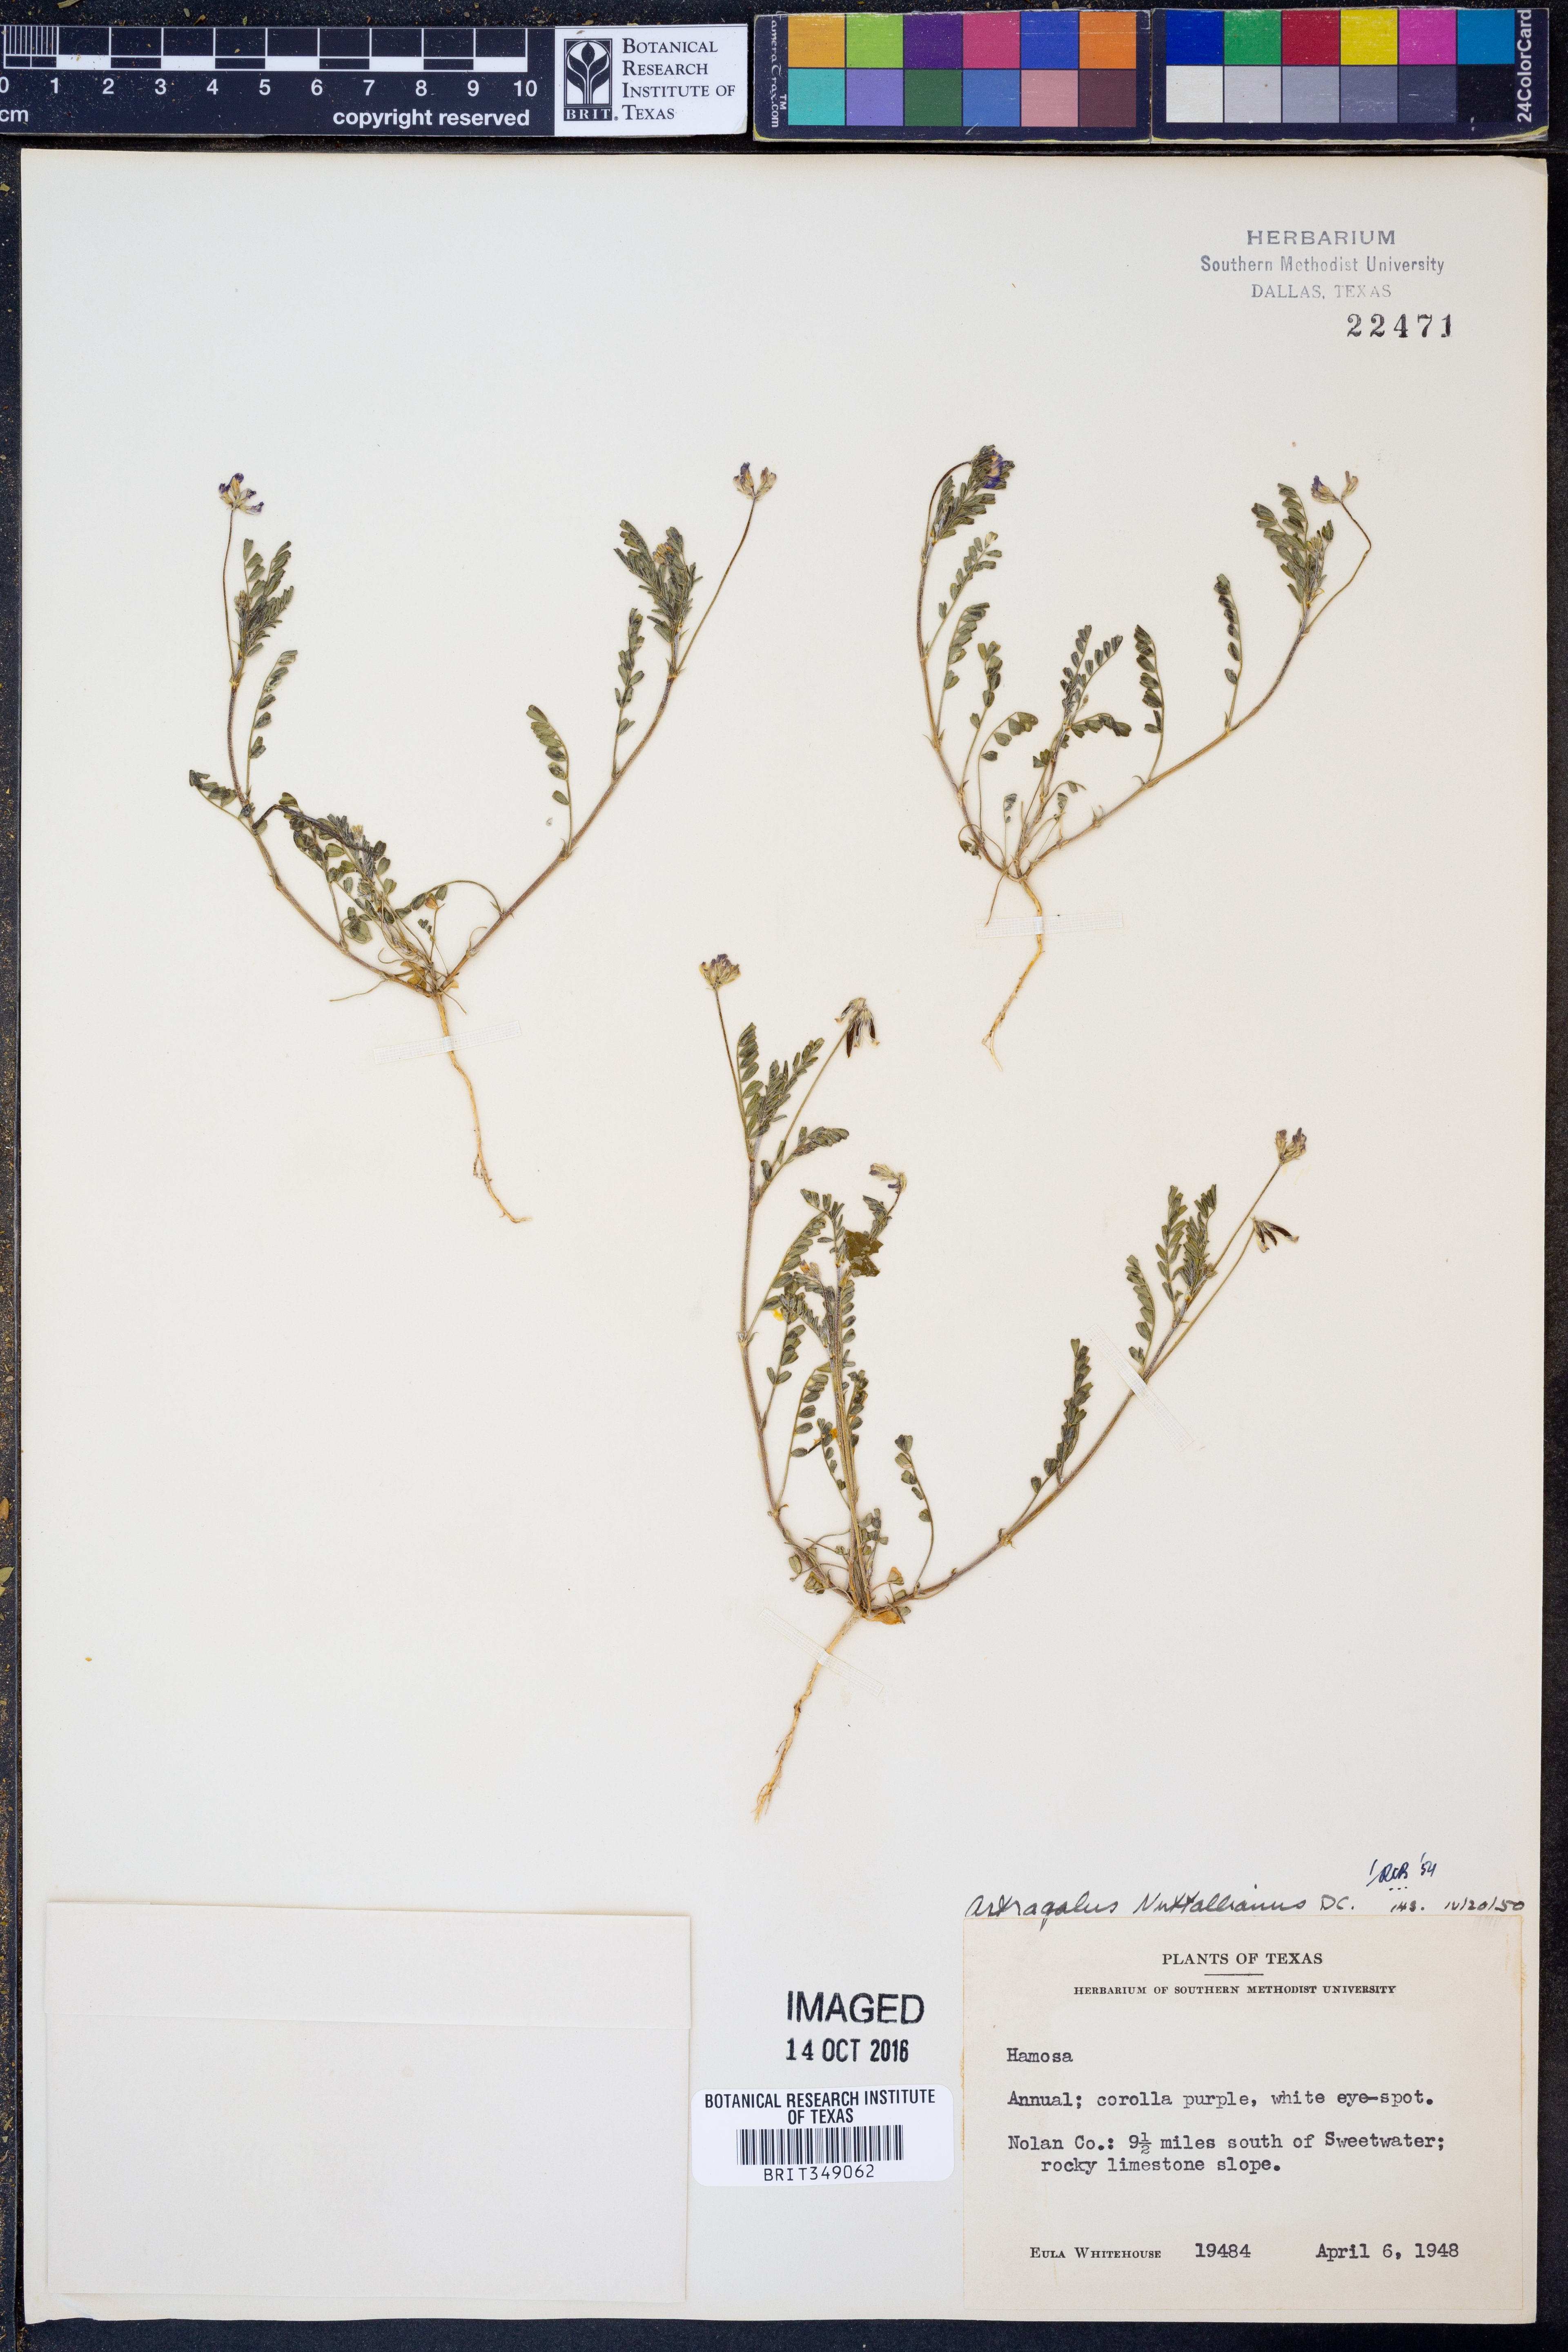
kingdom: Plantae
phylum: Tracheophyta
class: Magnoliopsida
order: Fabales
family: Fabaceae
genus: Astragalus
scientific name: Astragalus nuttallianus
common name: Smallflowered milkvetch
